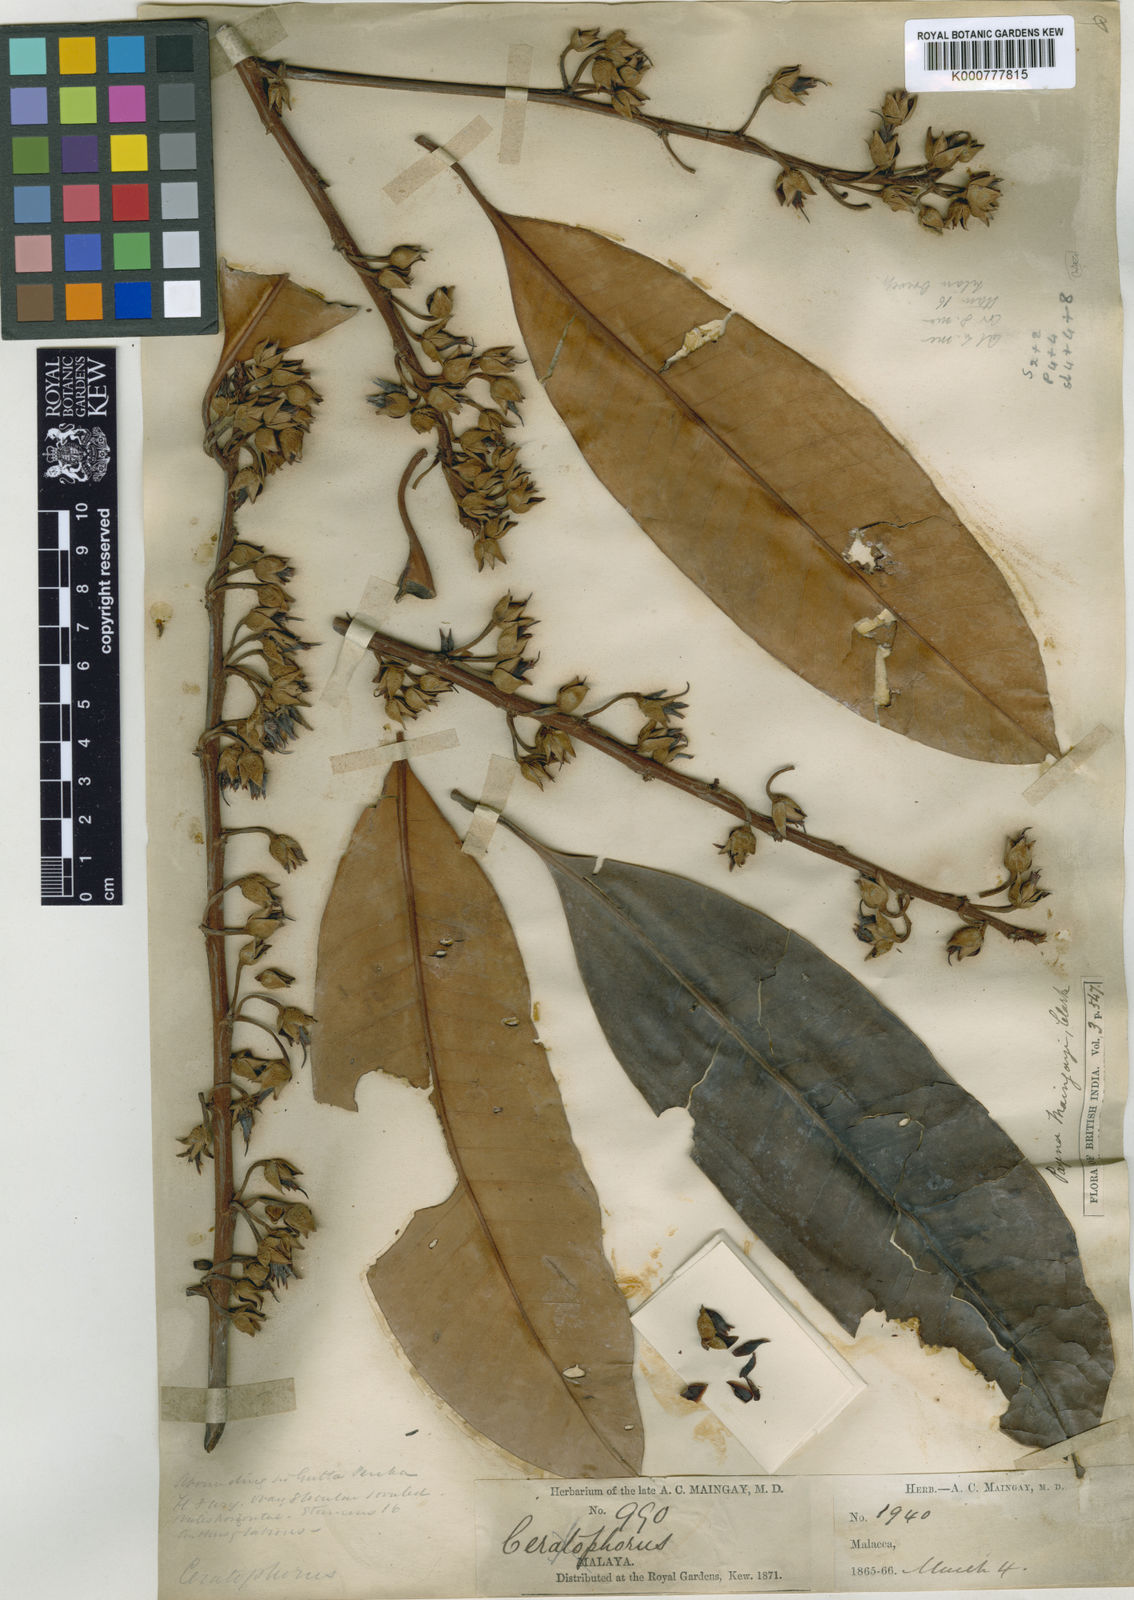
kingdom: Plantae
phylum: Tracheophyta
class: Magnoliopsida
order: Ericales
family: Sapotaceae
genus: Payena
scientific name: Payena maingayi
